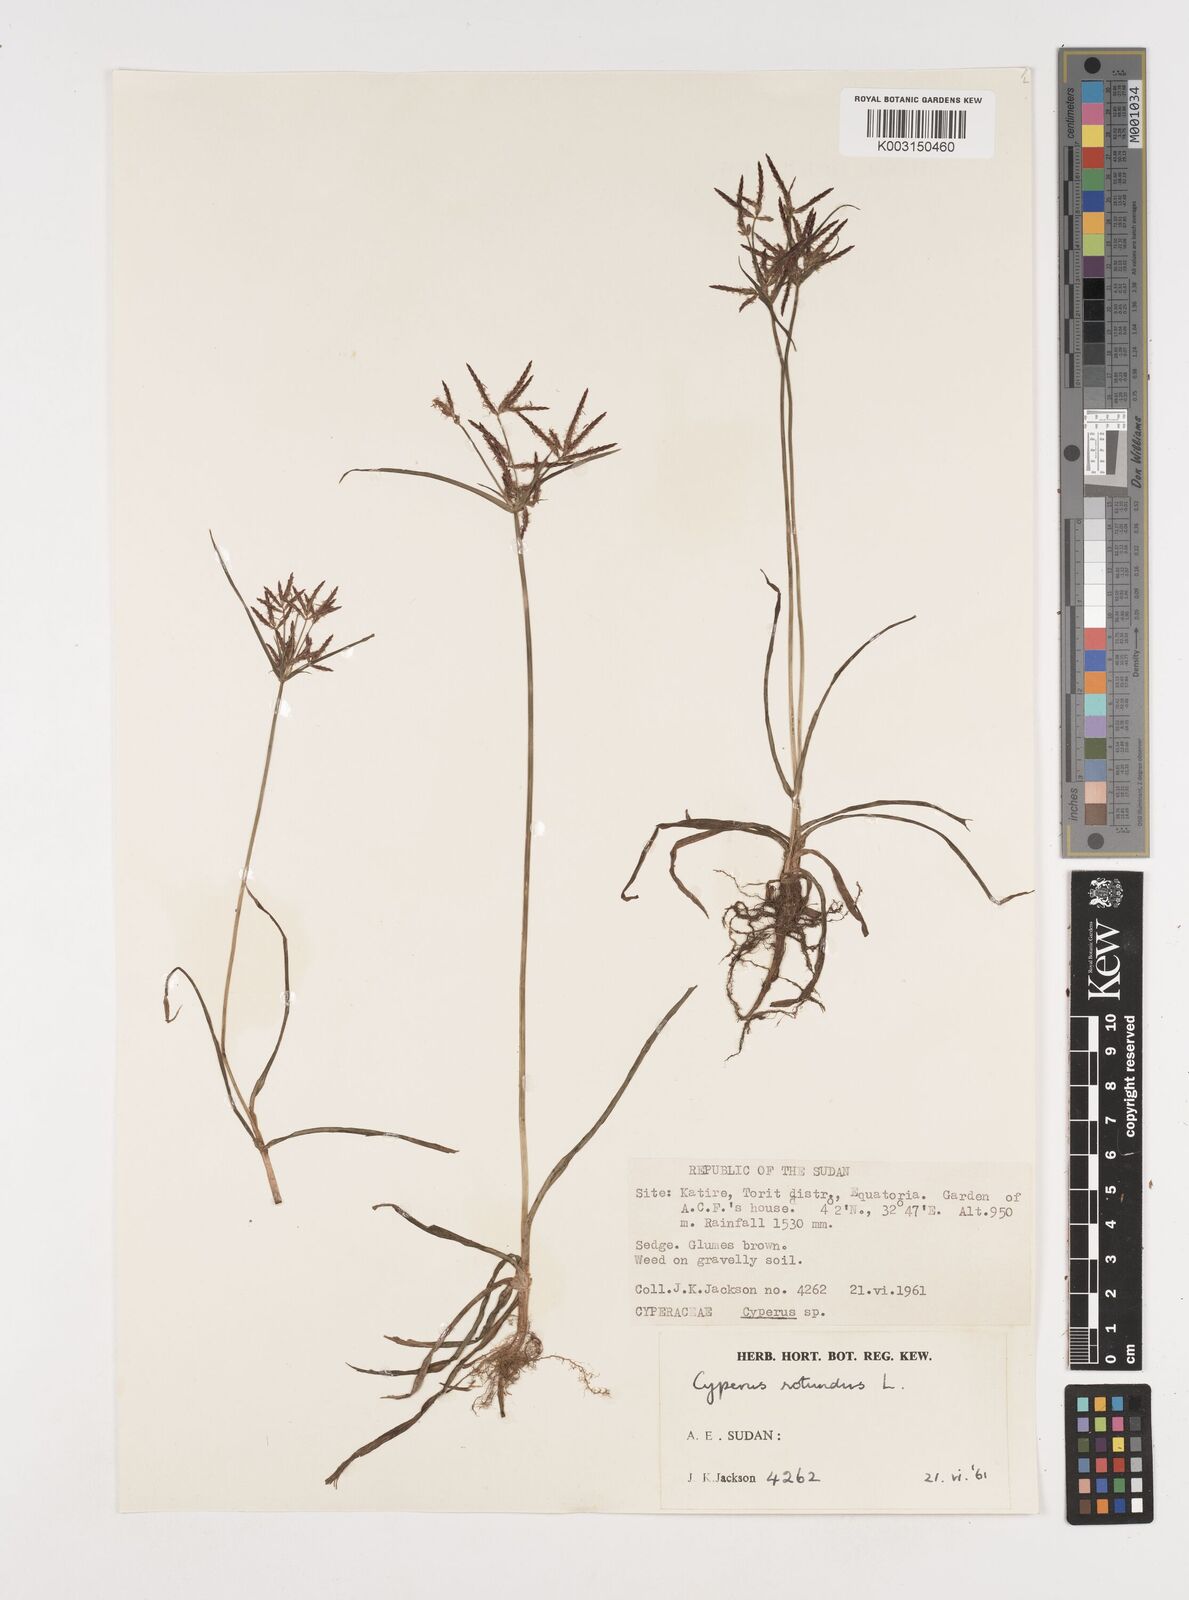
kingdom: Plantae
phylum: Tracheophyta
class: Liliopsida
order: Poales
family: Cyperaceae
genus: Cyperus
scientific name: Cyperus rotundus
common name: Nutgrass
